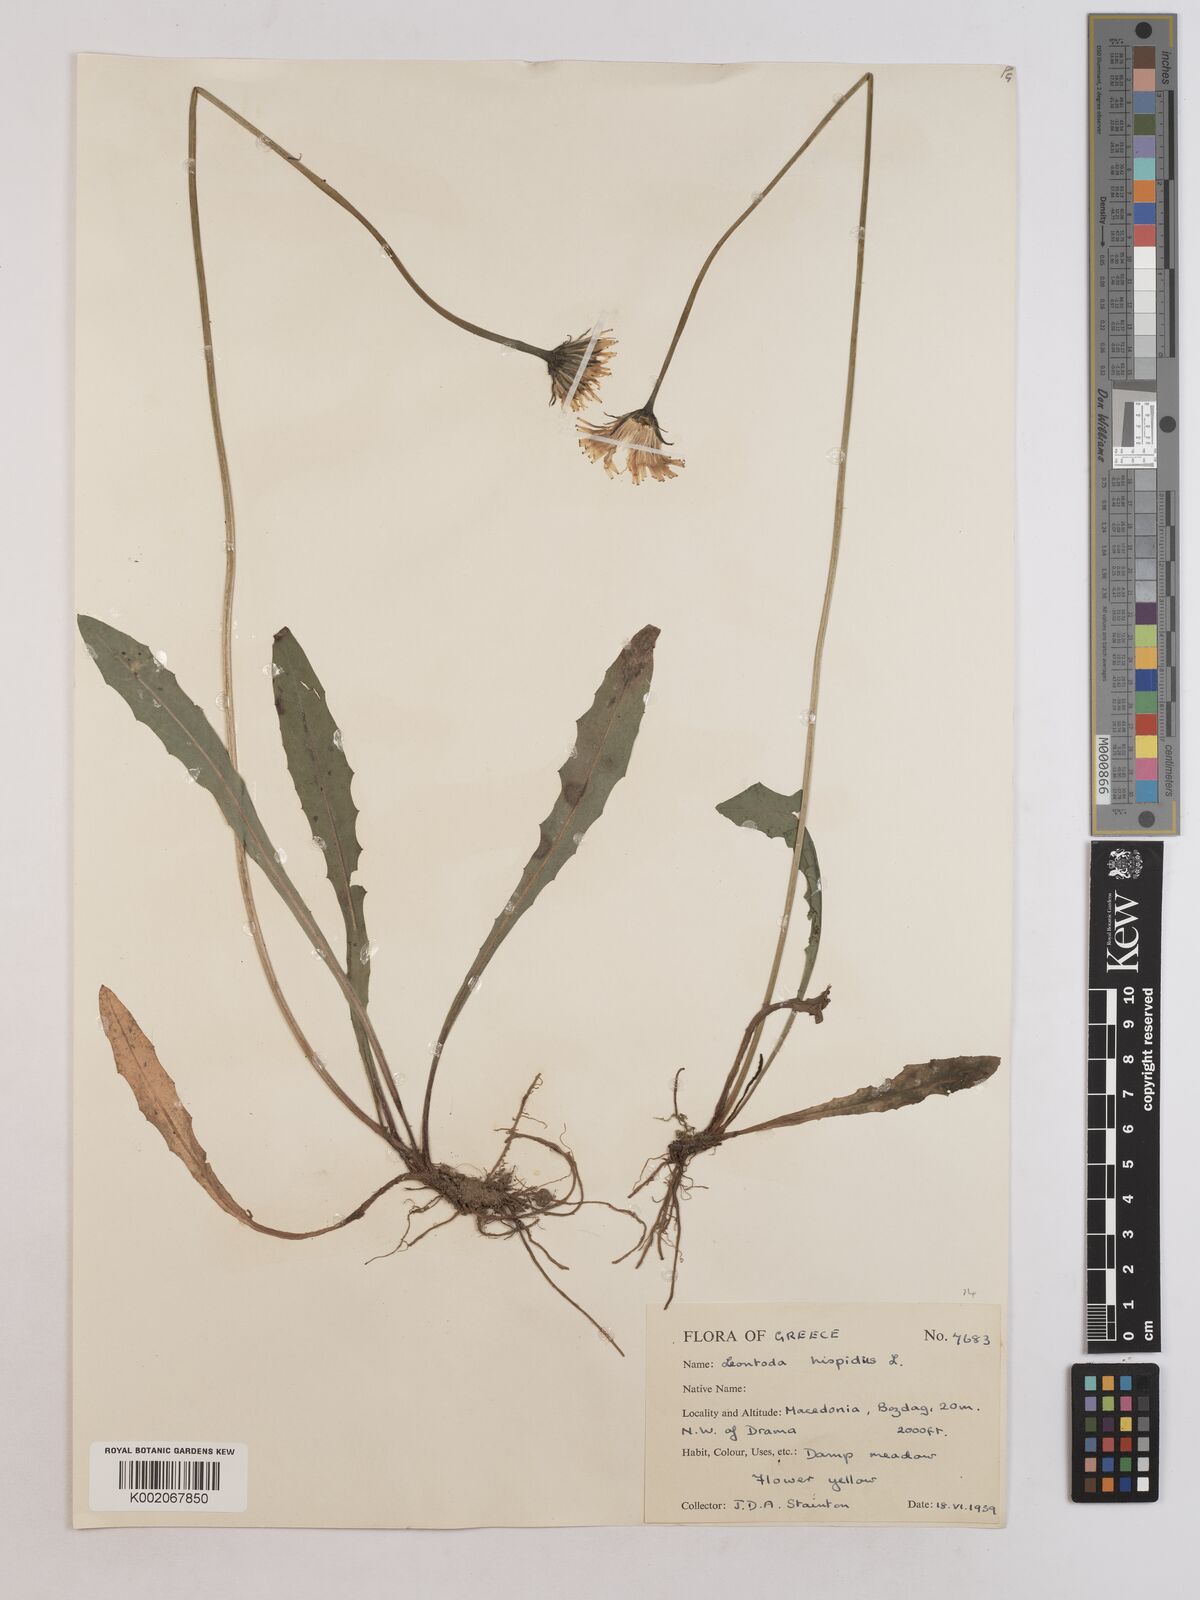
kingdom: Plantae
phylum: Tracheophyta
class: Magnoliopsida
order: Asterales
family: Asteraceae
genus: Leontodon
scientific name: Leontodon hispidus
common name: Rough hawkbit
